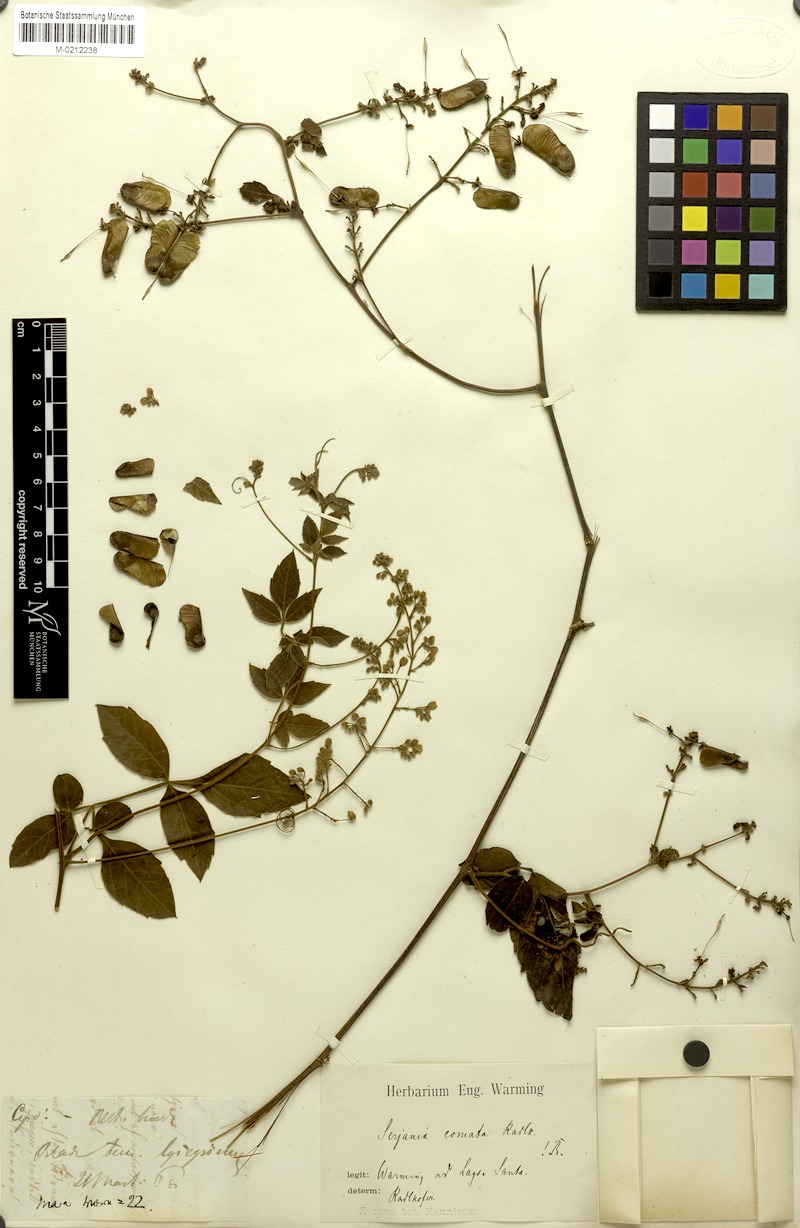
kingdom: Plantae
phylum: Tracheophyta
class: Magnoliopsida
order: Sapindales
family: Sapindaceae
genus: Serjania
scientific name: Serjania comata
